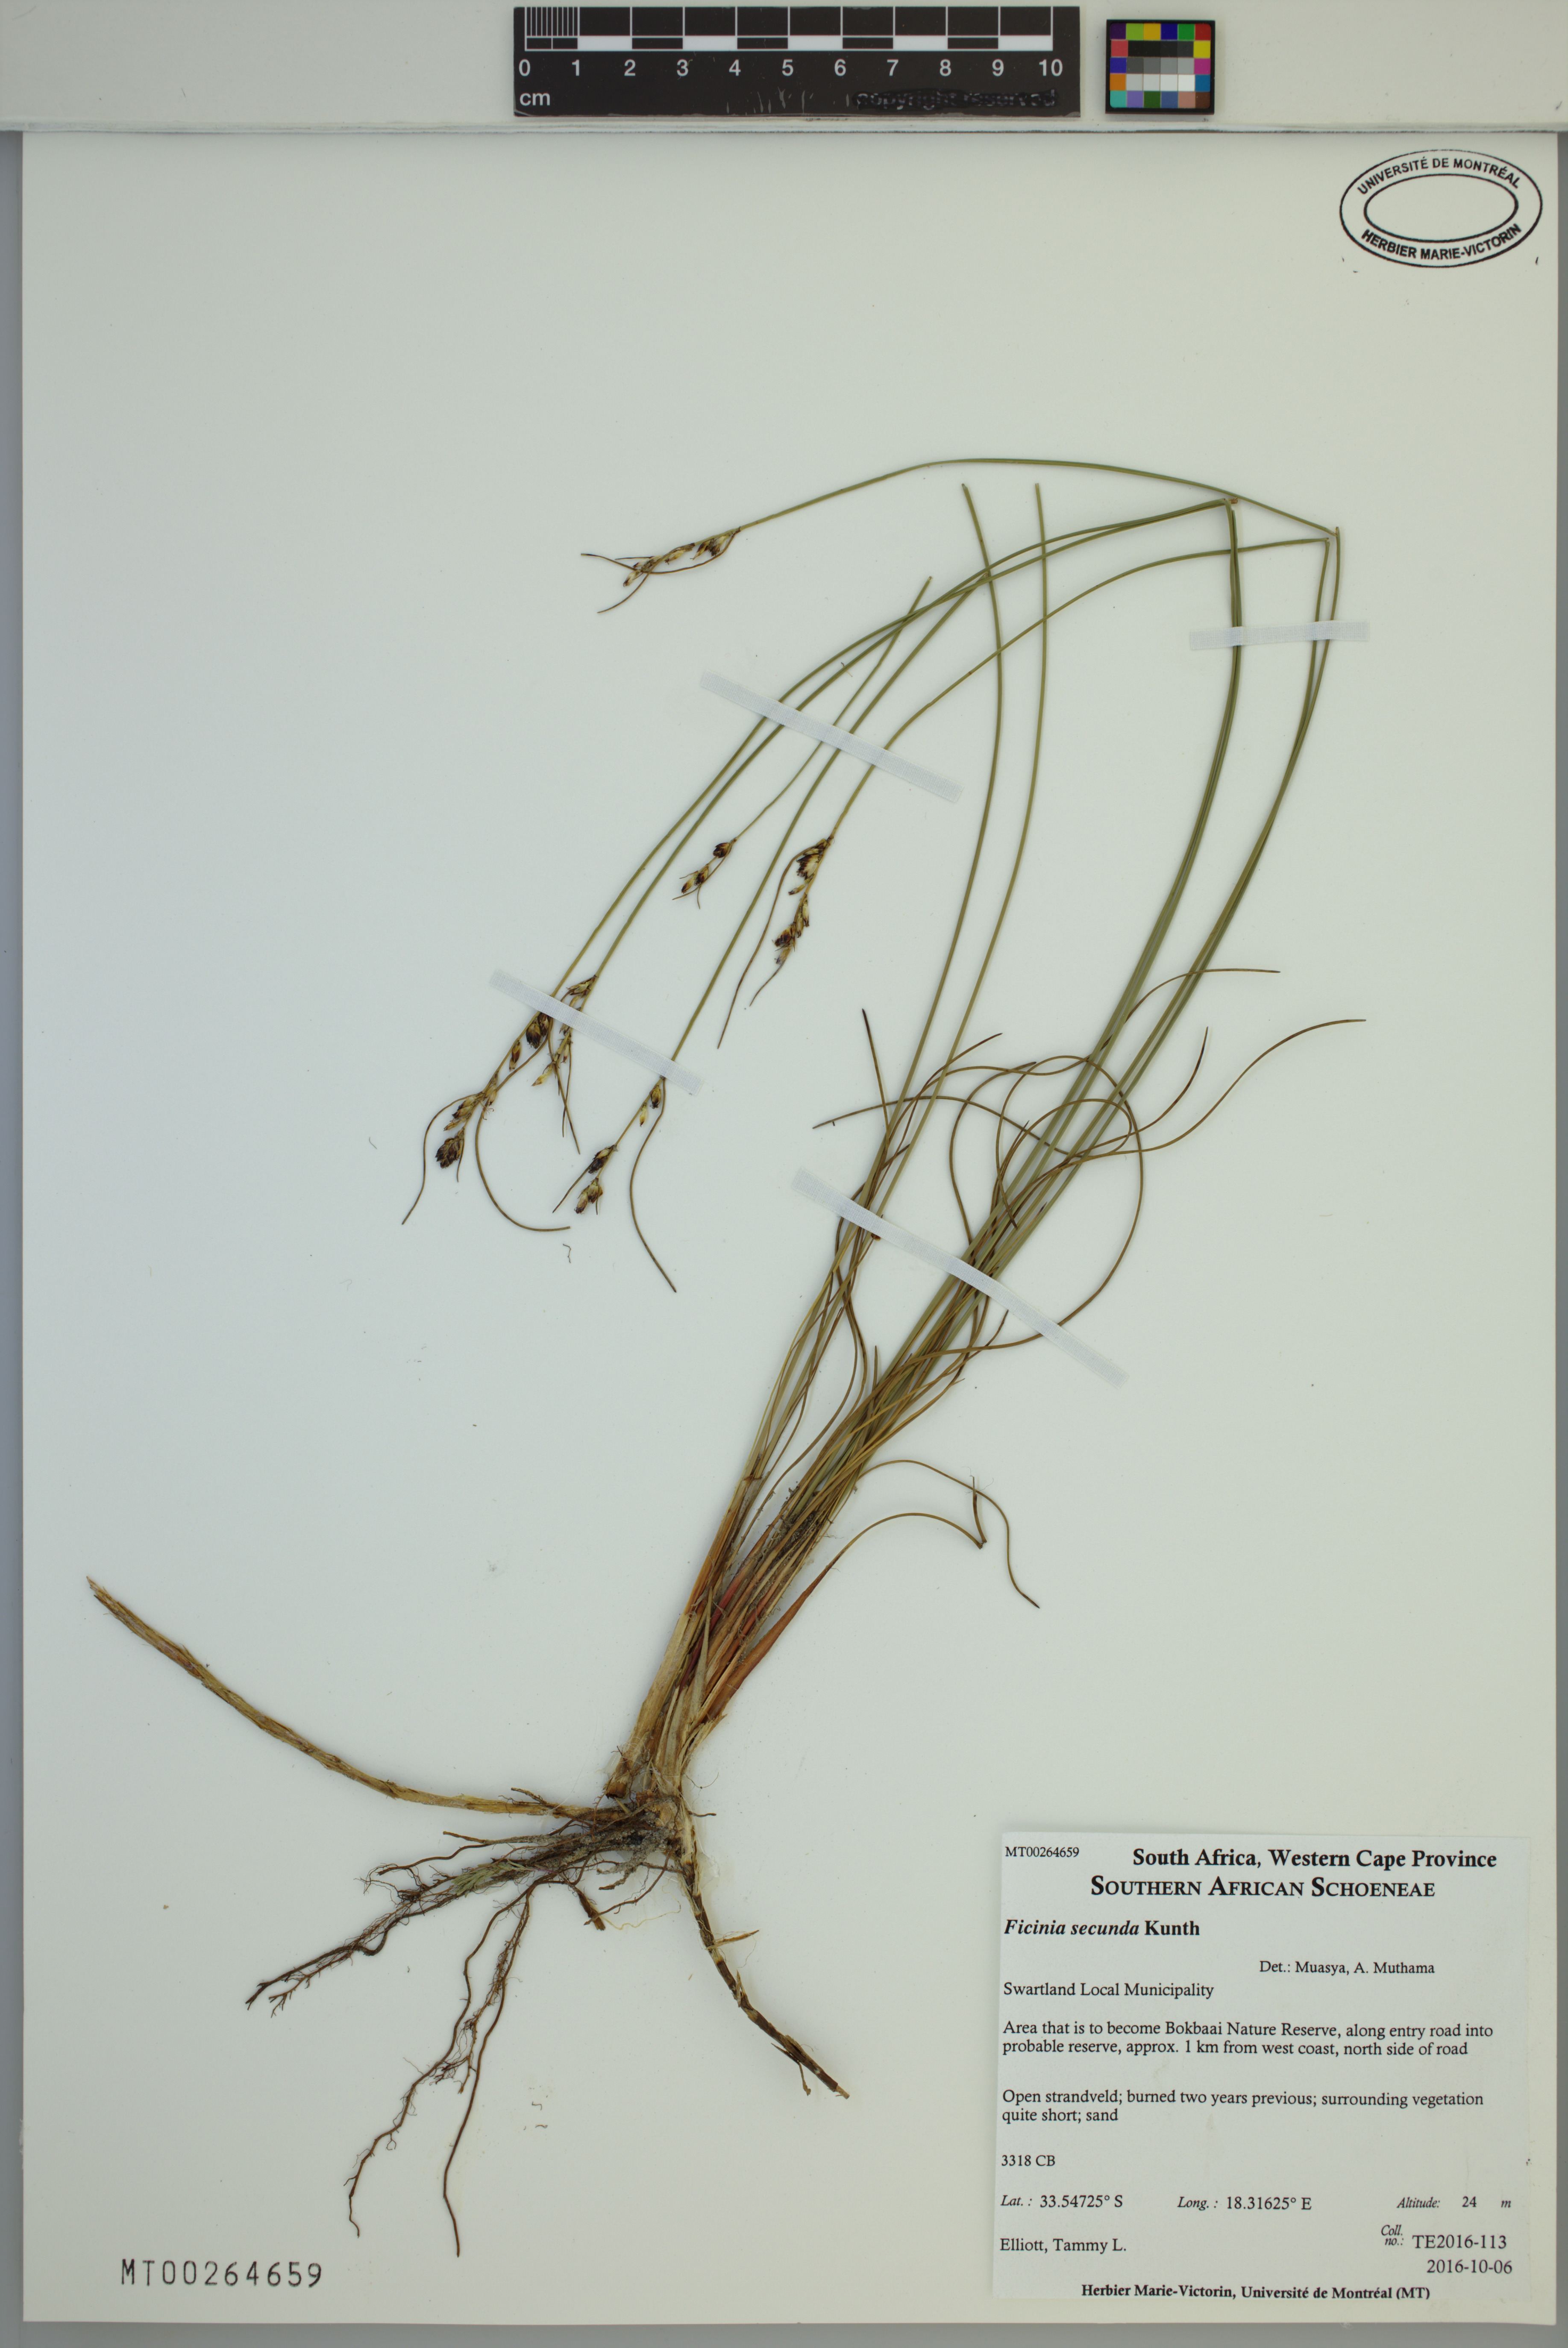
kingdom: Plantae
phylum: Tracheophyta
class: Liliopsida
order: Poales
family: Cyperaceae
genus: Ficinia
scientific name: Ficinia secunda
